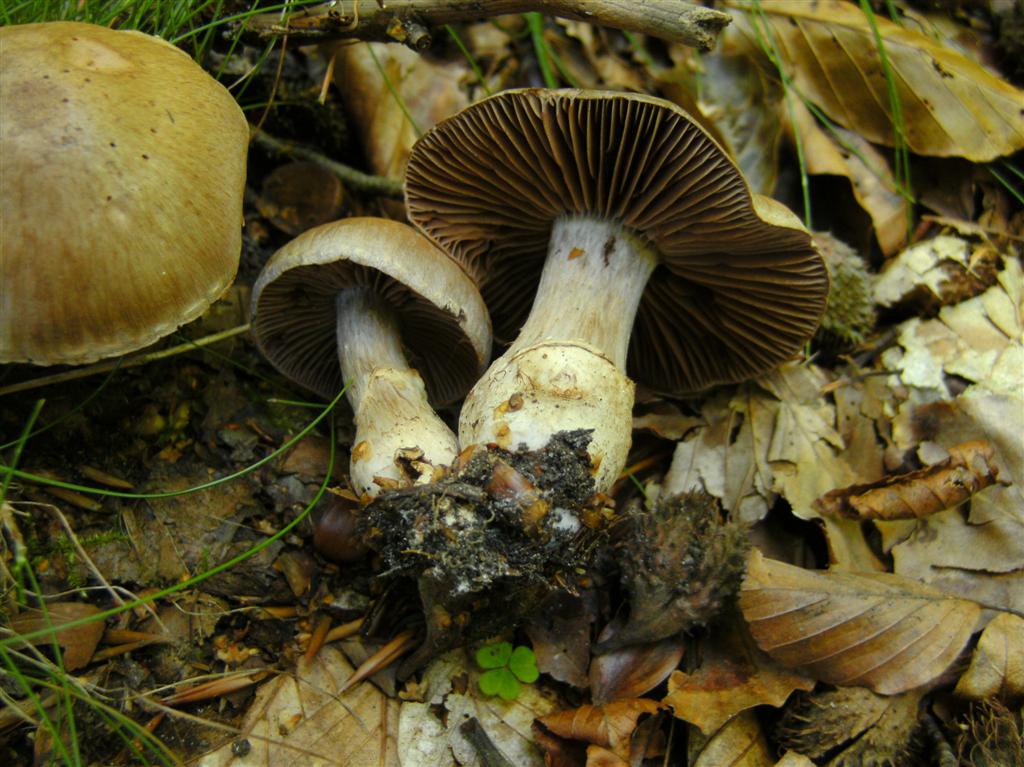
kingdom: Fungi
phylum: Basidiomycota
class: Agaricomycetes
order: Agaricales
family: Cortinariaceae
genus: Cortinarius
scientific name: Cortinarius torvus
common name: champignonagtig slørhat
